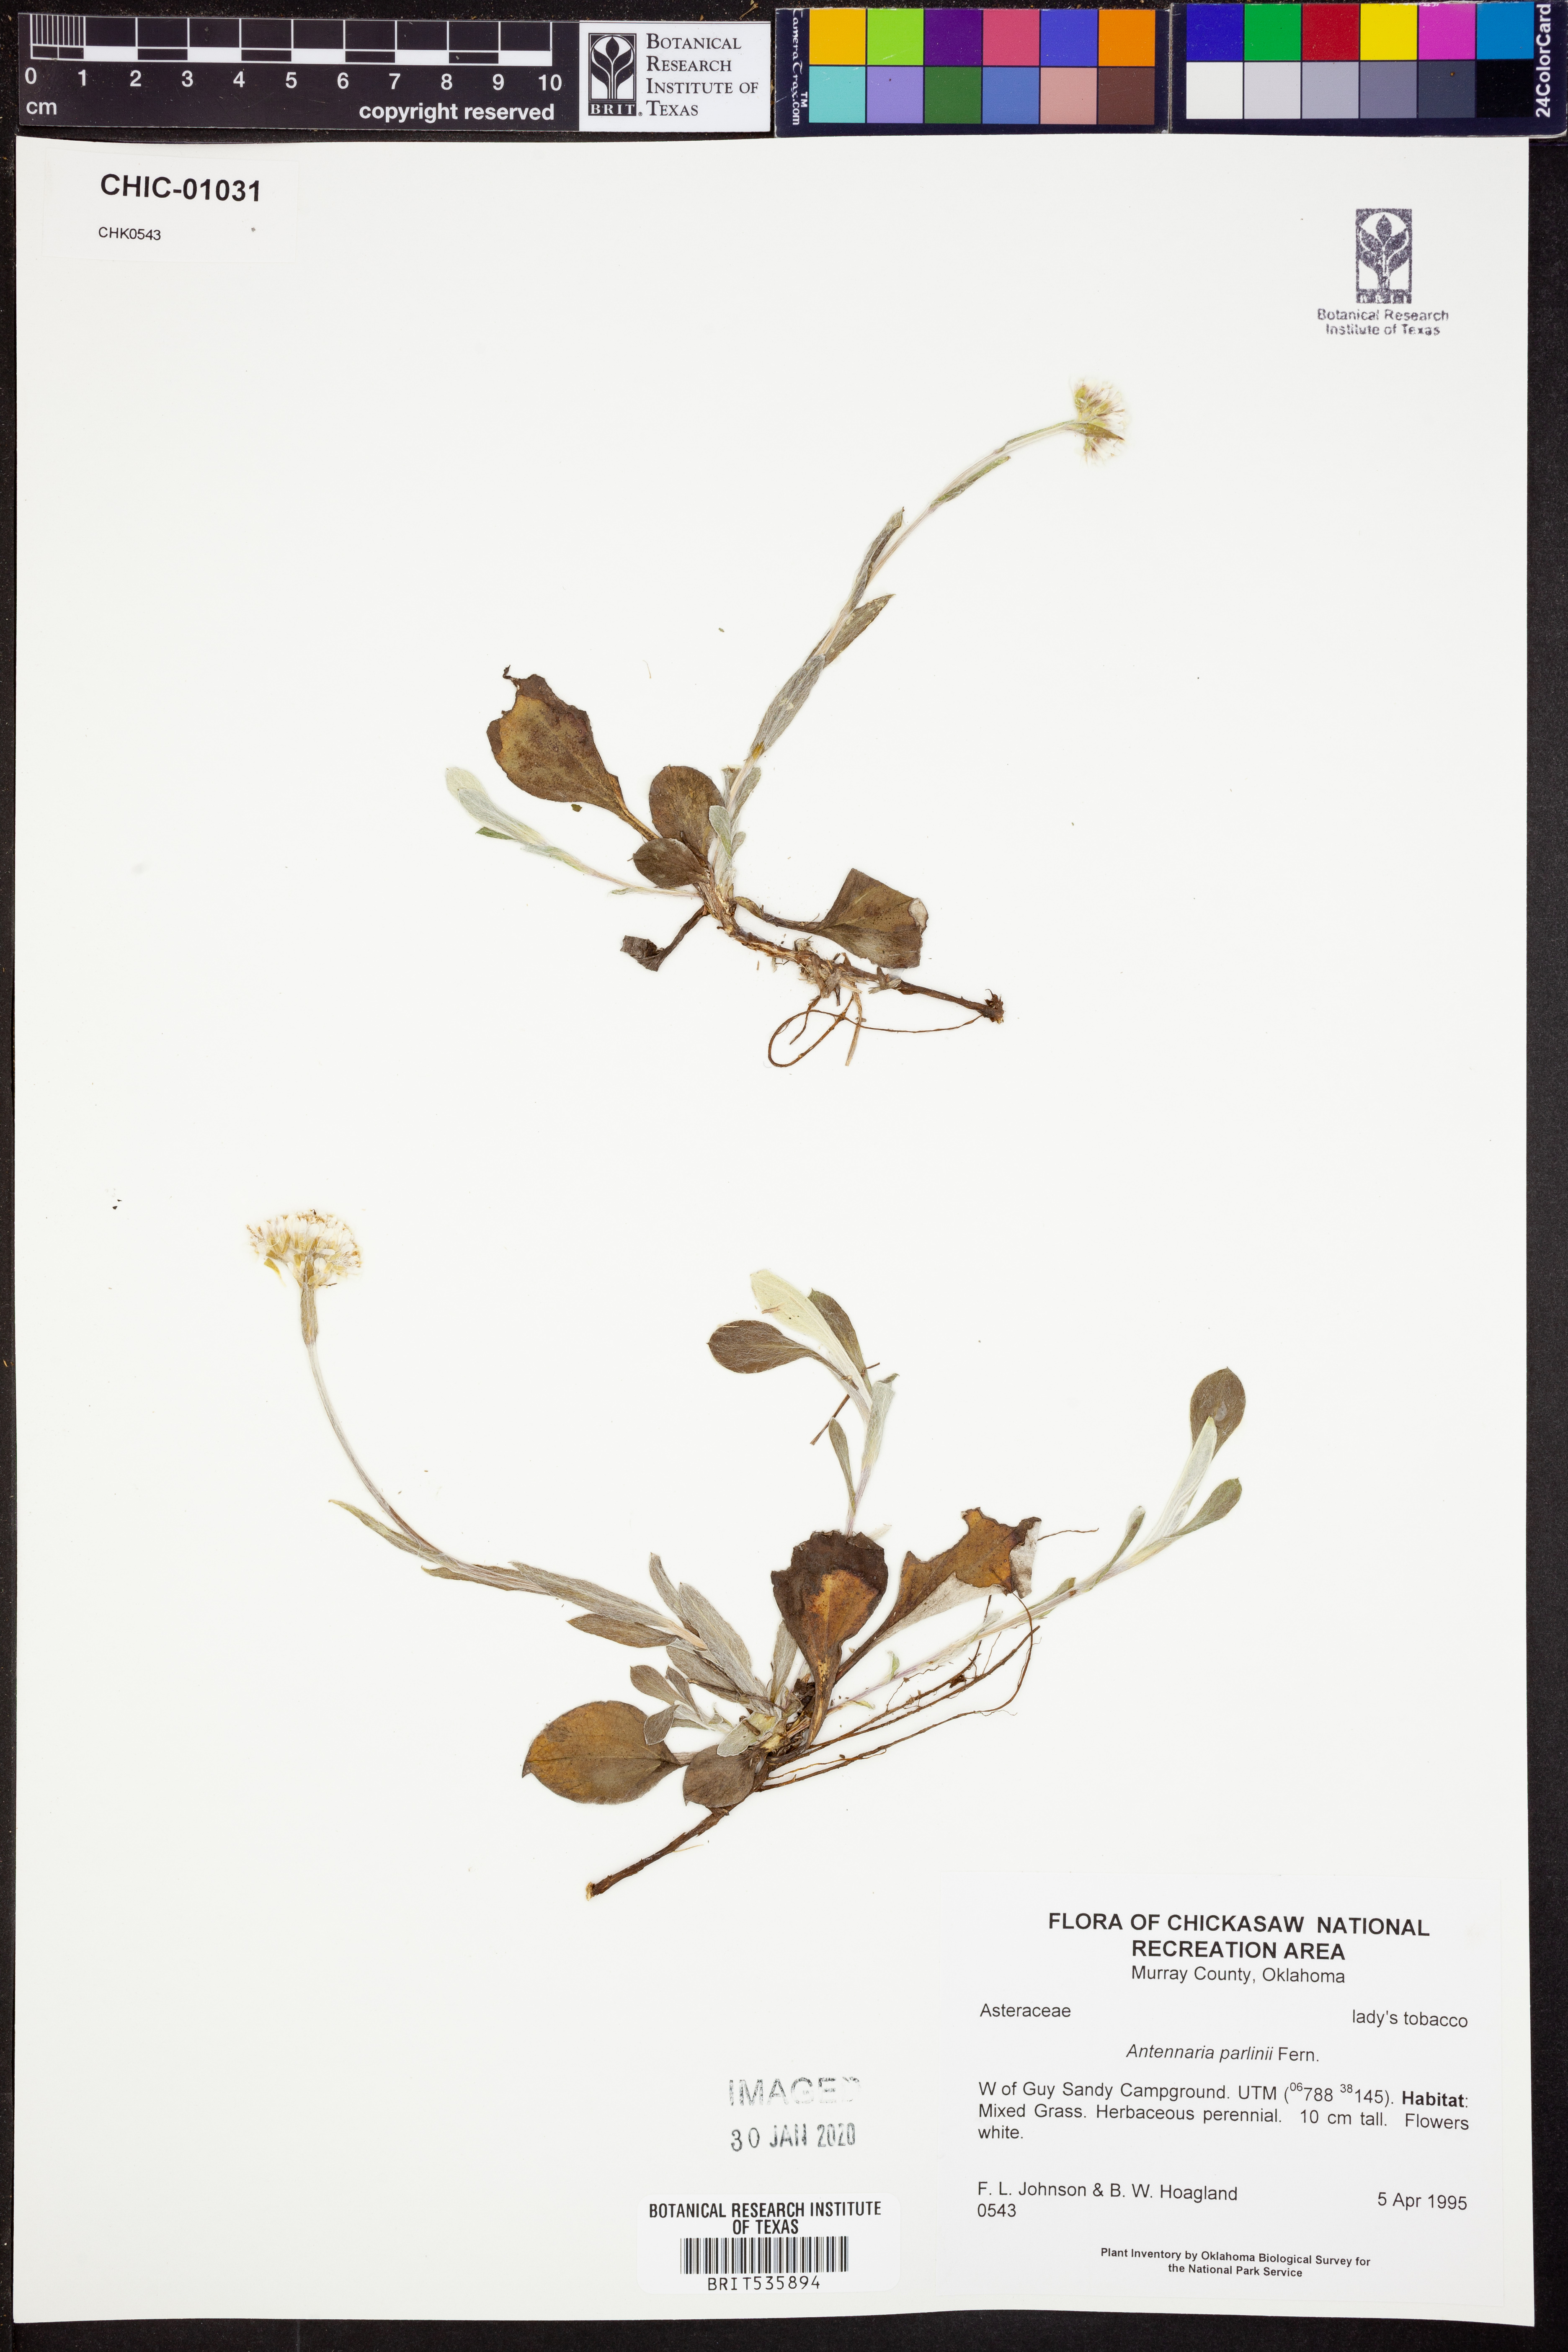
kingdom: Plantae
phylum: Tracheophyta
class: Magnoliopsida
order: Asterales
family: Asteraceae
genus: Antennaria
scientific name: Antennaria parlinii
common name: Parlin's pussytoes
